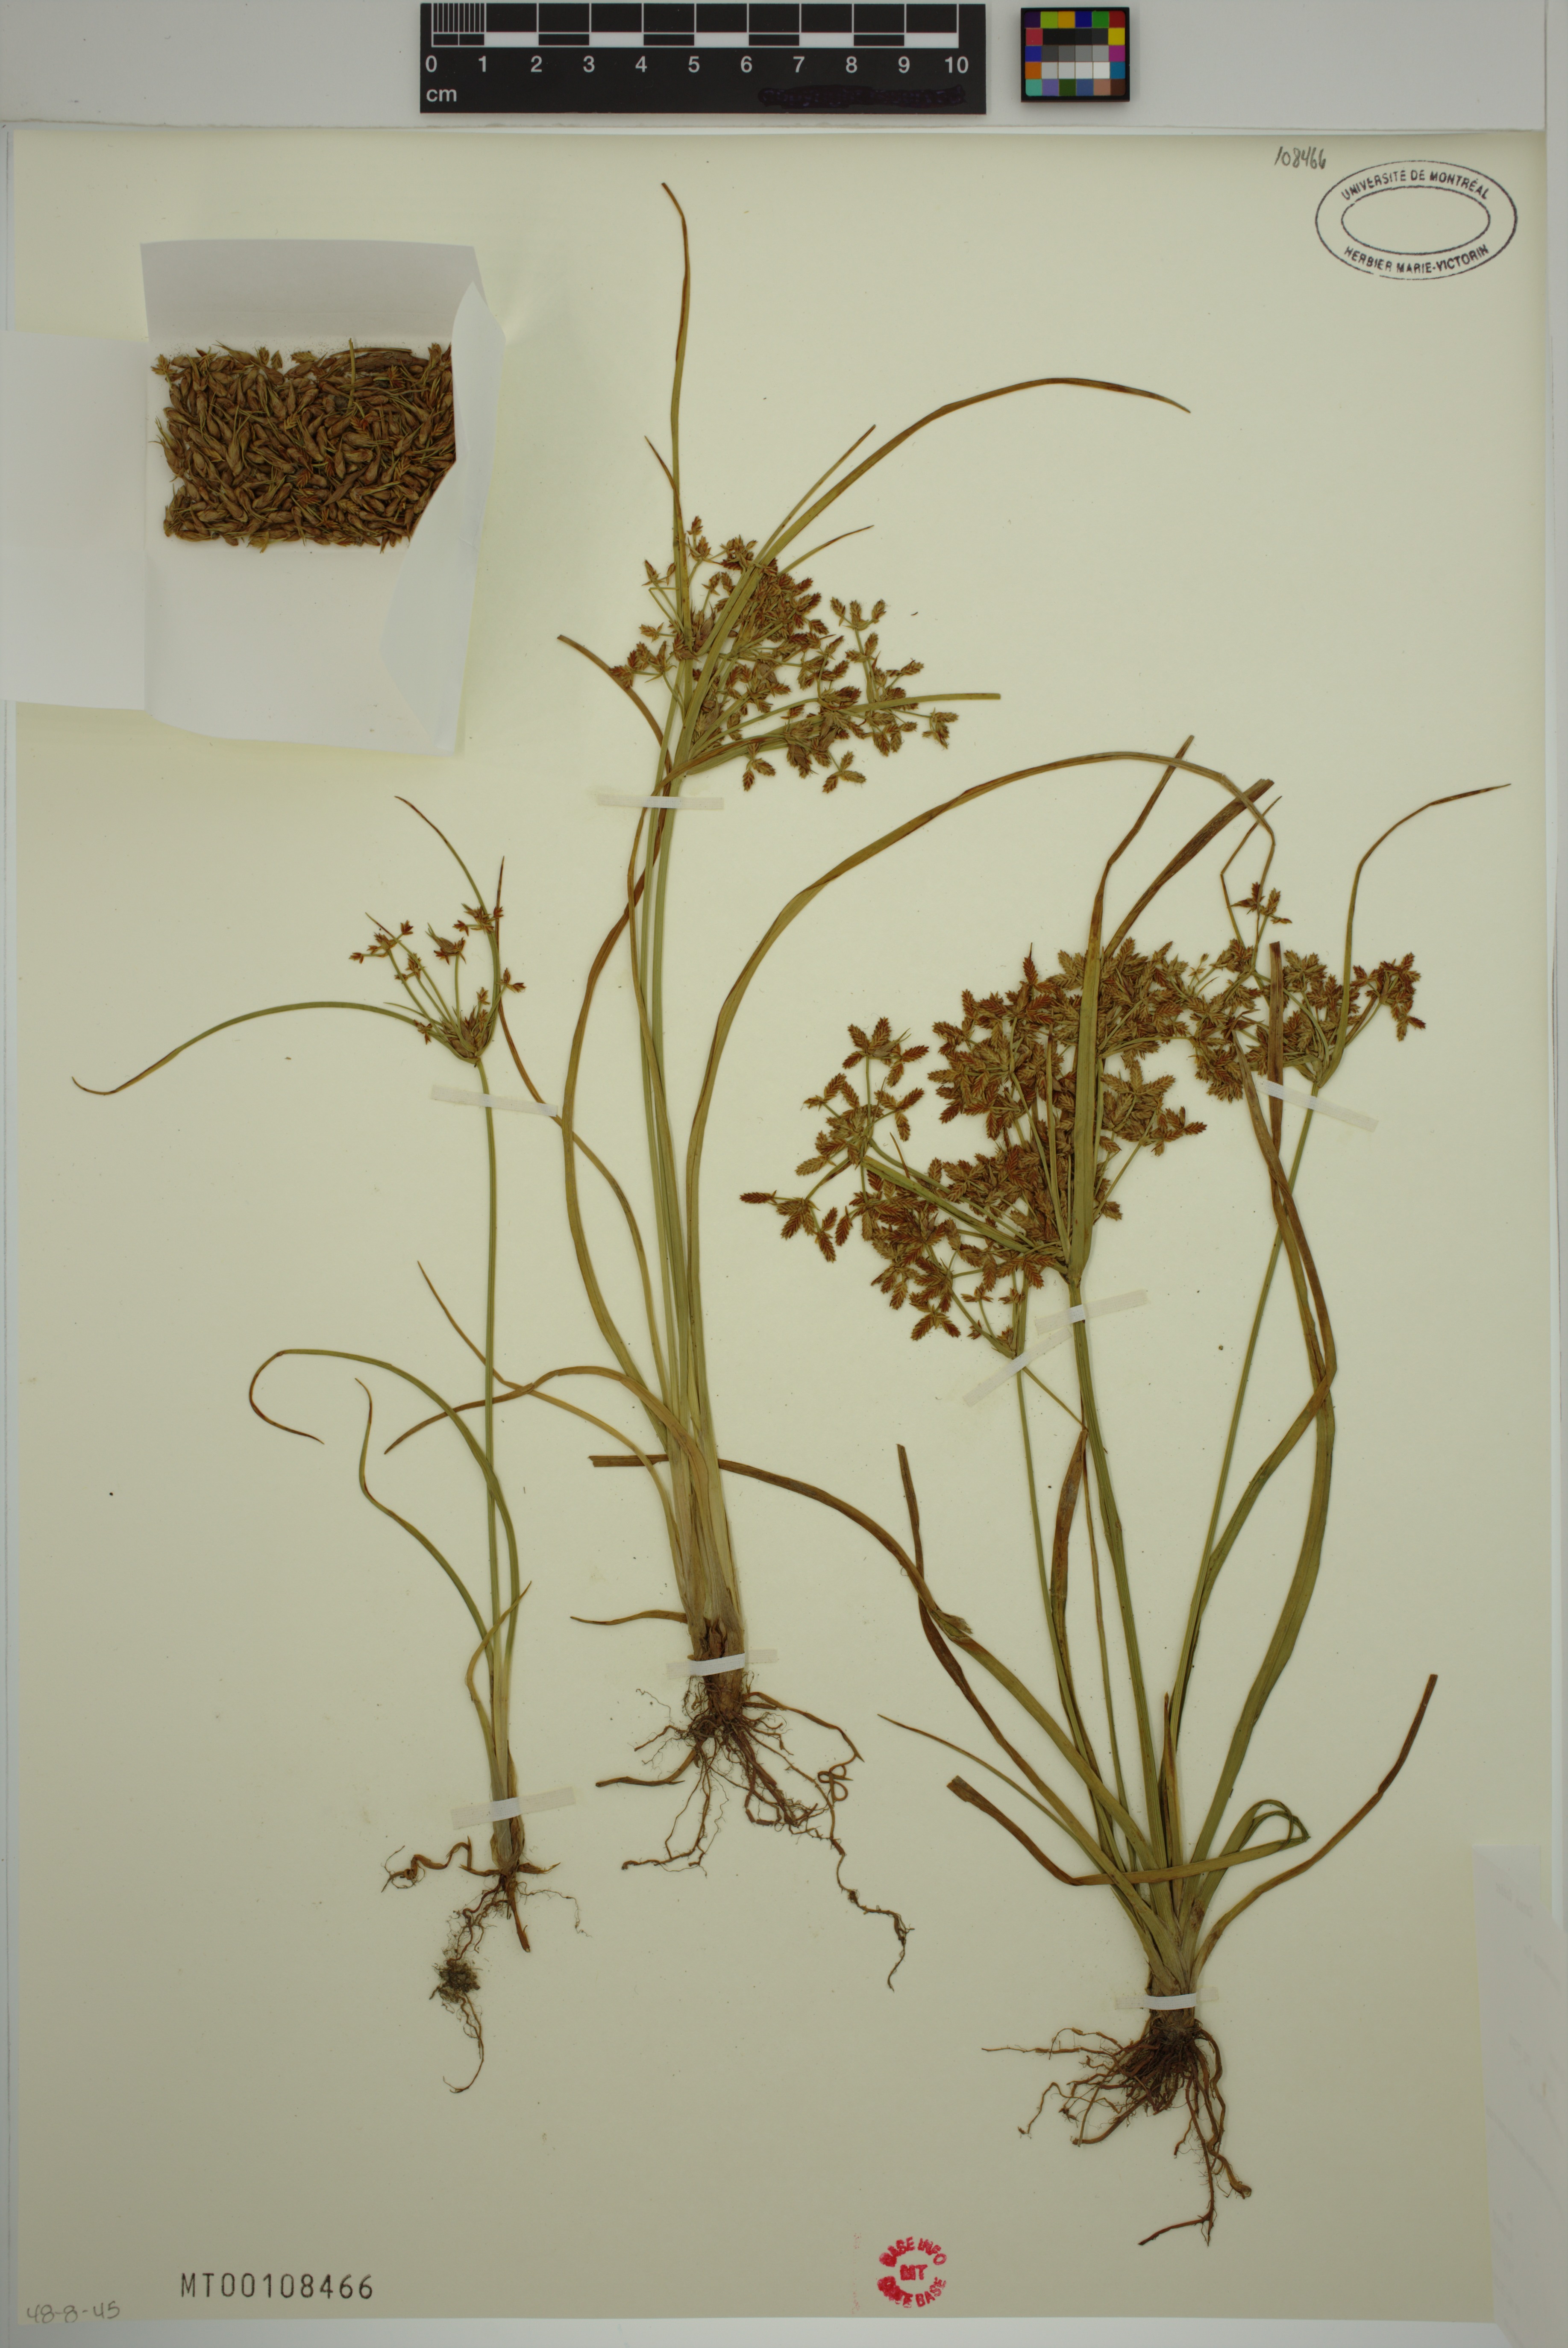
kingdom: Plantae
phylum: Tracheophyta
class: Liliopsida
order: Poales
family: Cyperaceae
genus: Cyperus
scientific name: Cyperus dentatus
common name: Dentate umbrella sedge
